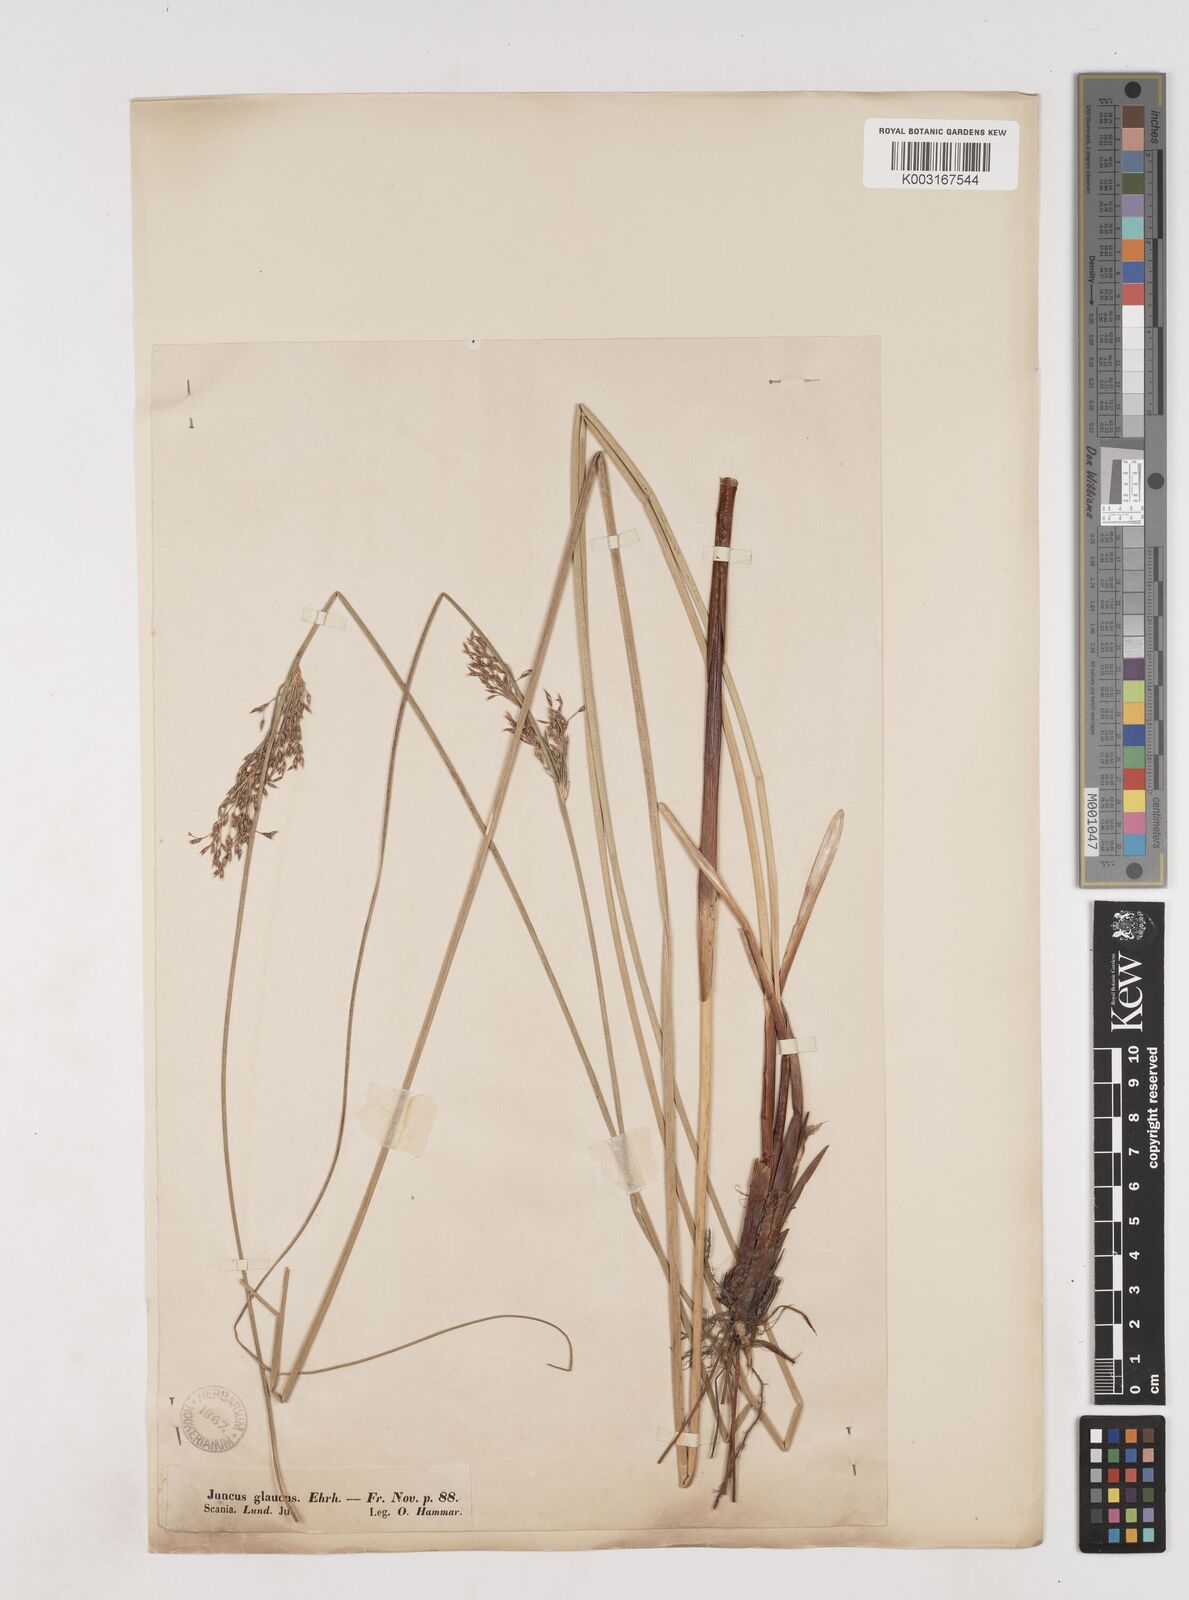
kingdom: Plantae
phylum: Tracheophyta
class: Liliopsida
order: Poales
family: Juncaceae
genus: Juncus
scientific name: Juncus inflexus
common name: Hard rush
